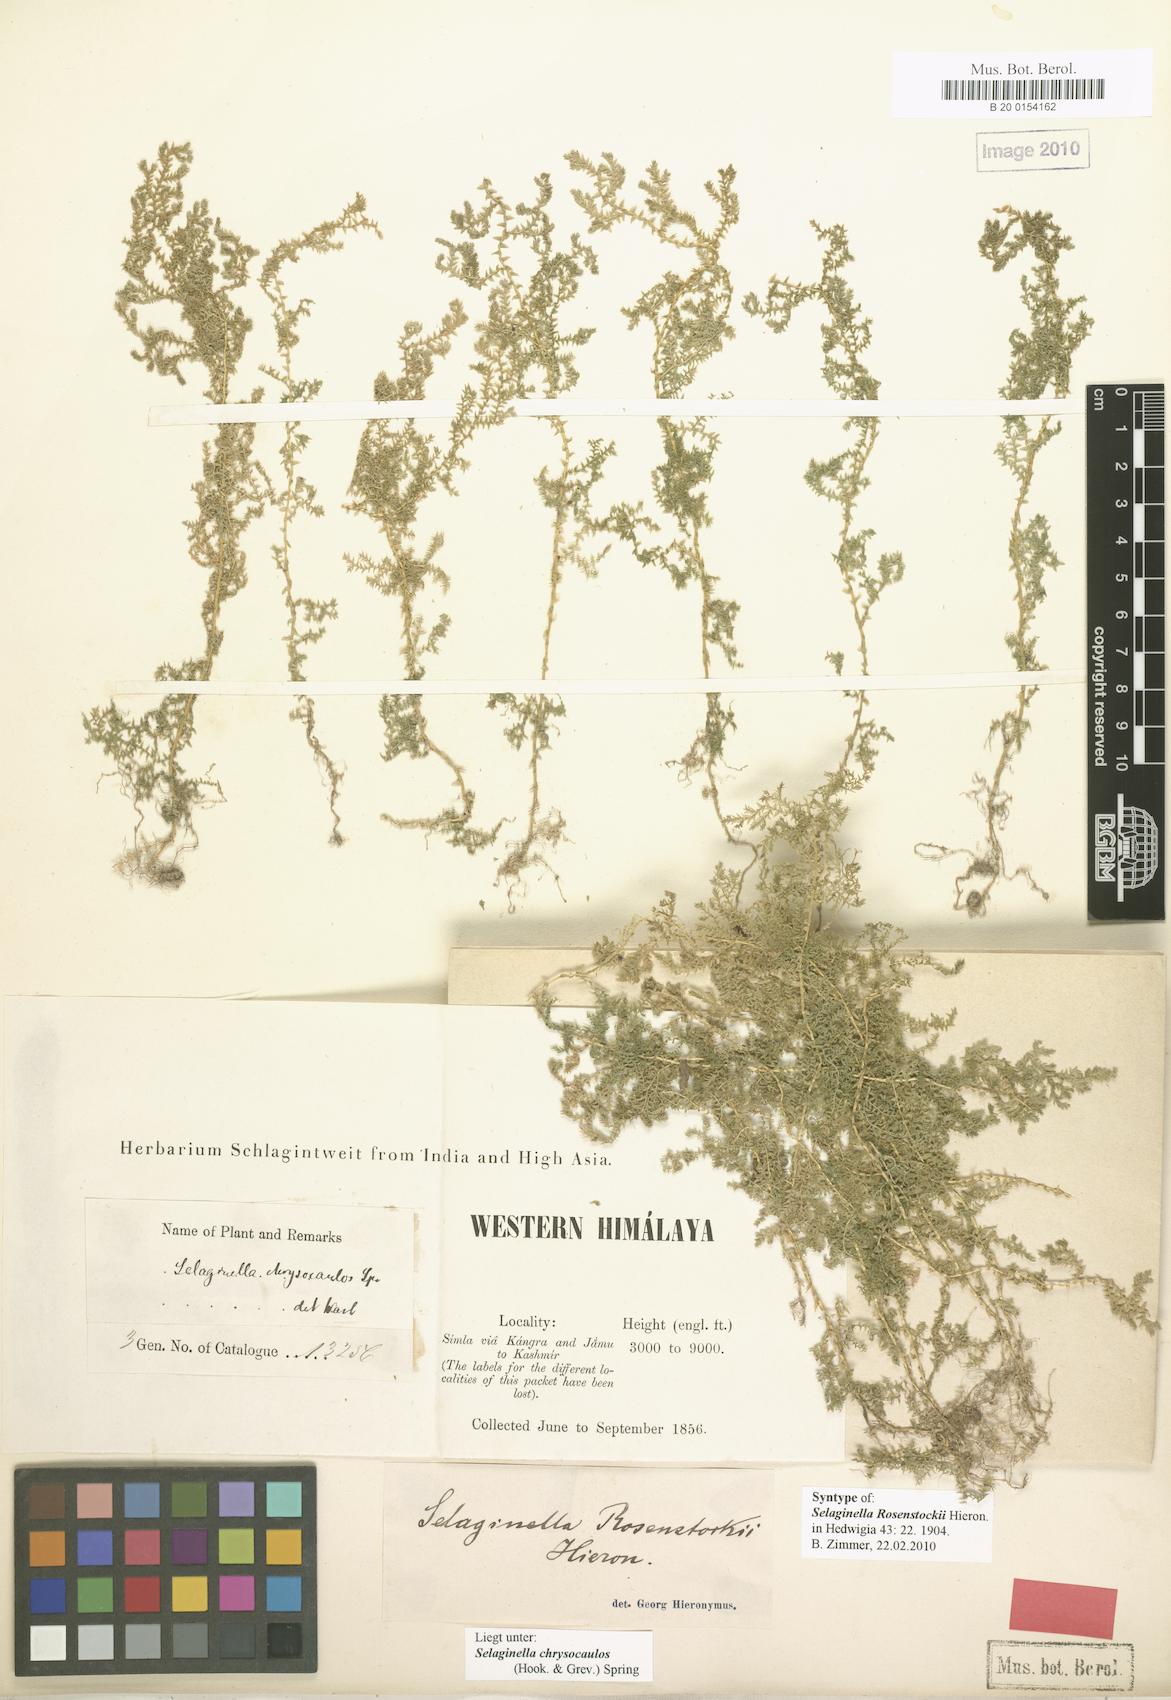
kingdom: Plantae
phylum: Tracheophyta
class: Lycopodiopsida
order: Selaginellales
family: Selaginellaceae
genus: Selaginella
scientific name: Selaginella chrysocaulos
